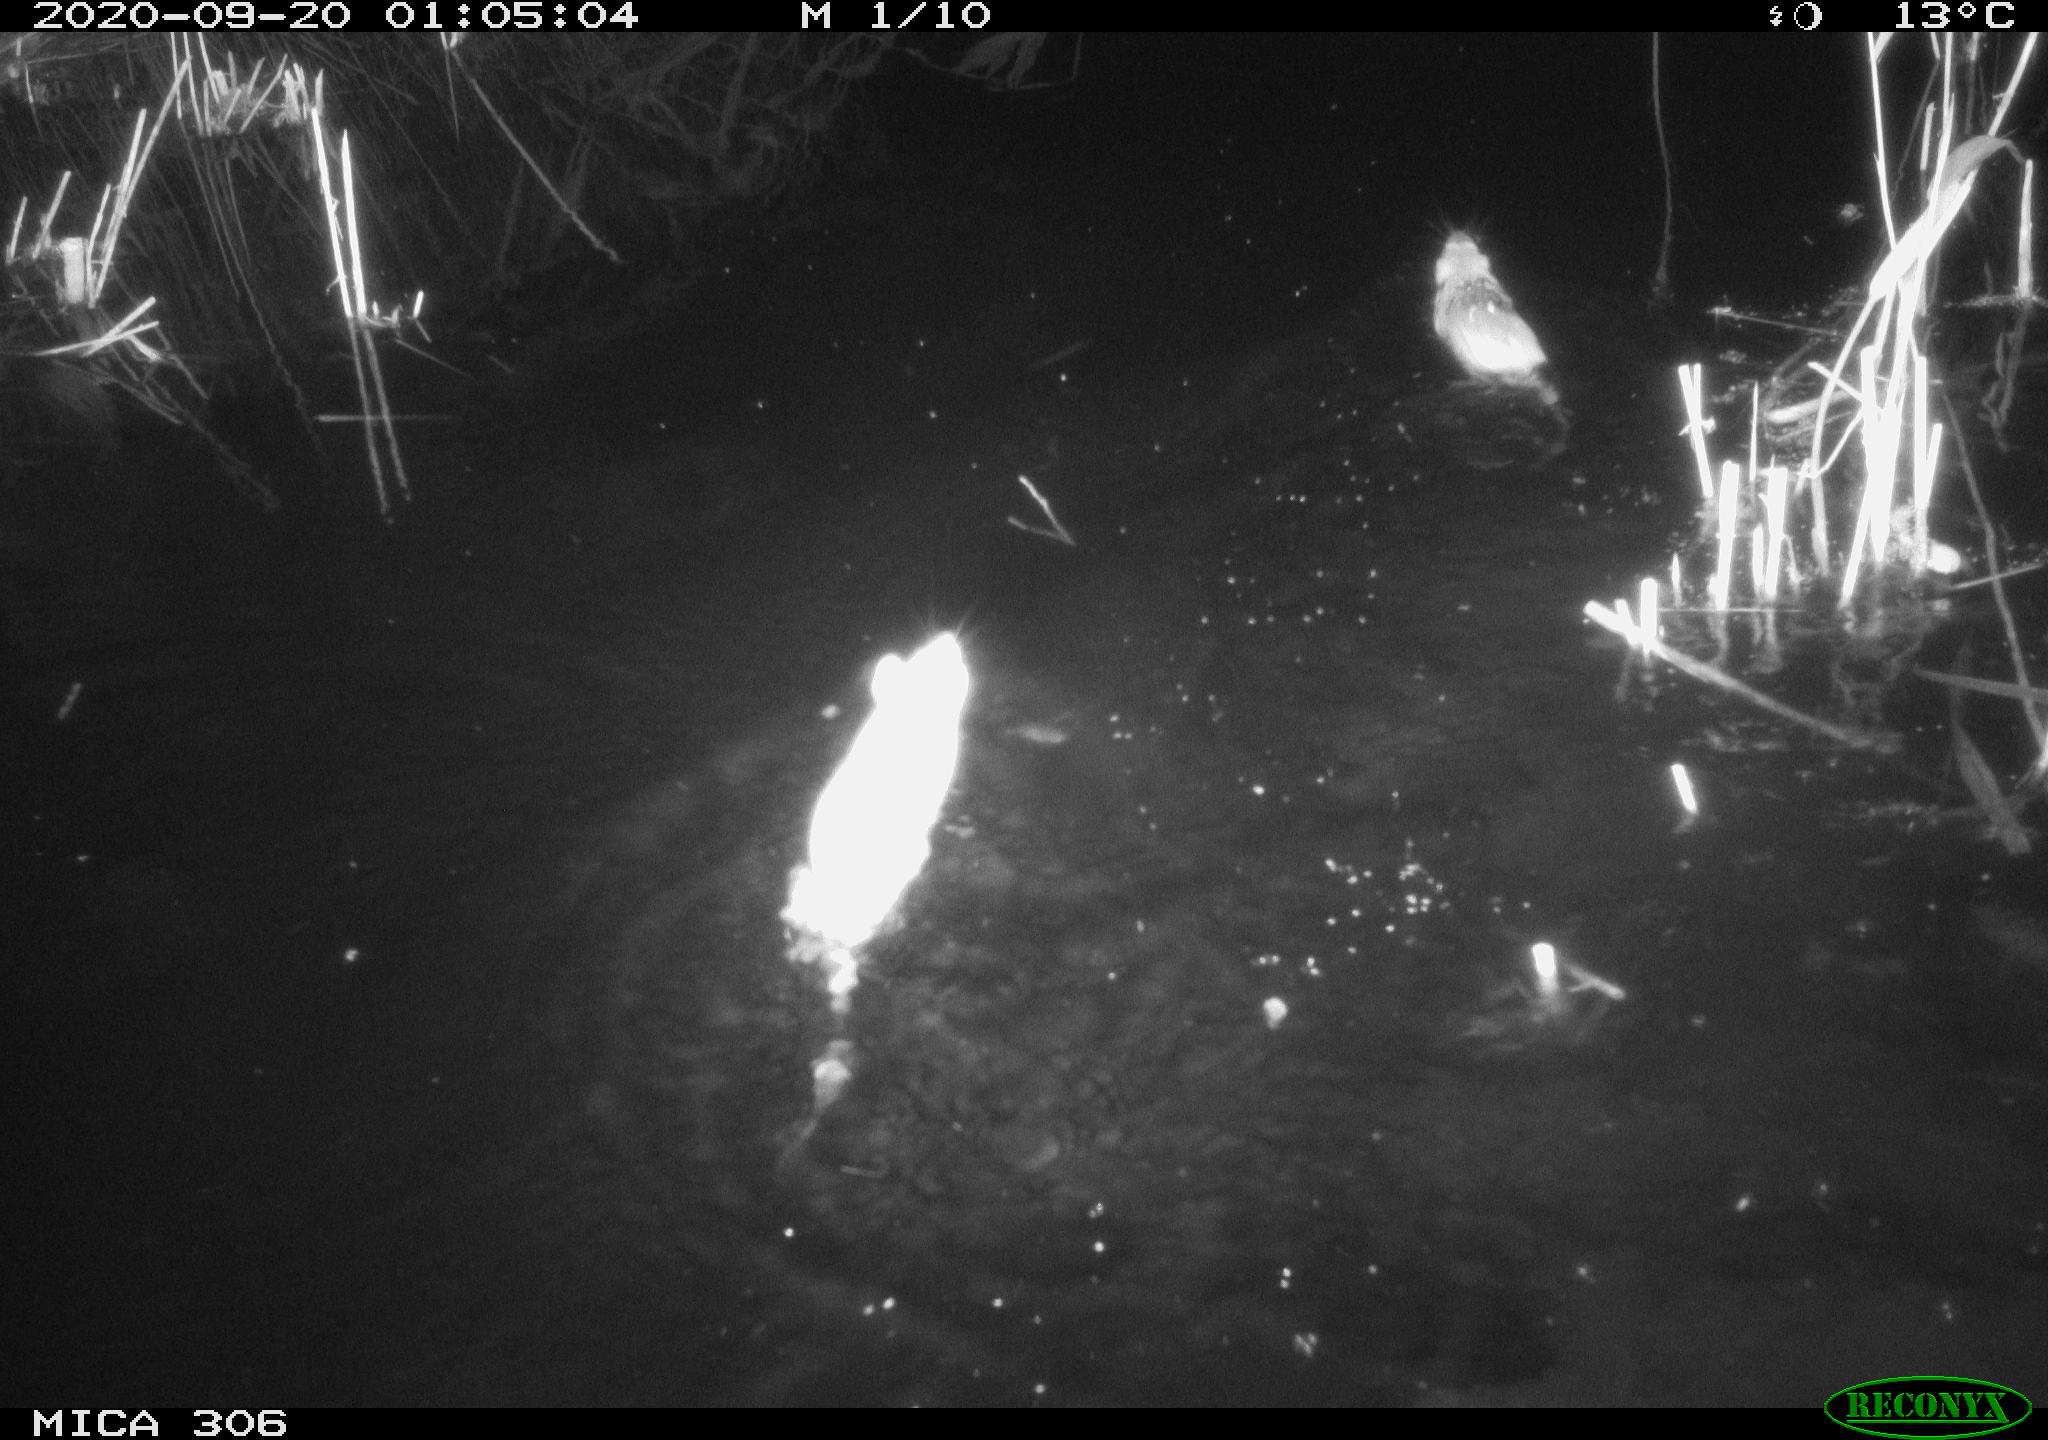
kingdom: Animalia
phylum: Chordata
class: Mammalia
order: Rodentia
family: Muridae
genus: Rattus
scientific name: Rattus norvegicus
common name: Brown rat
